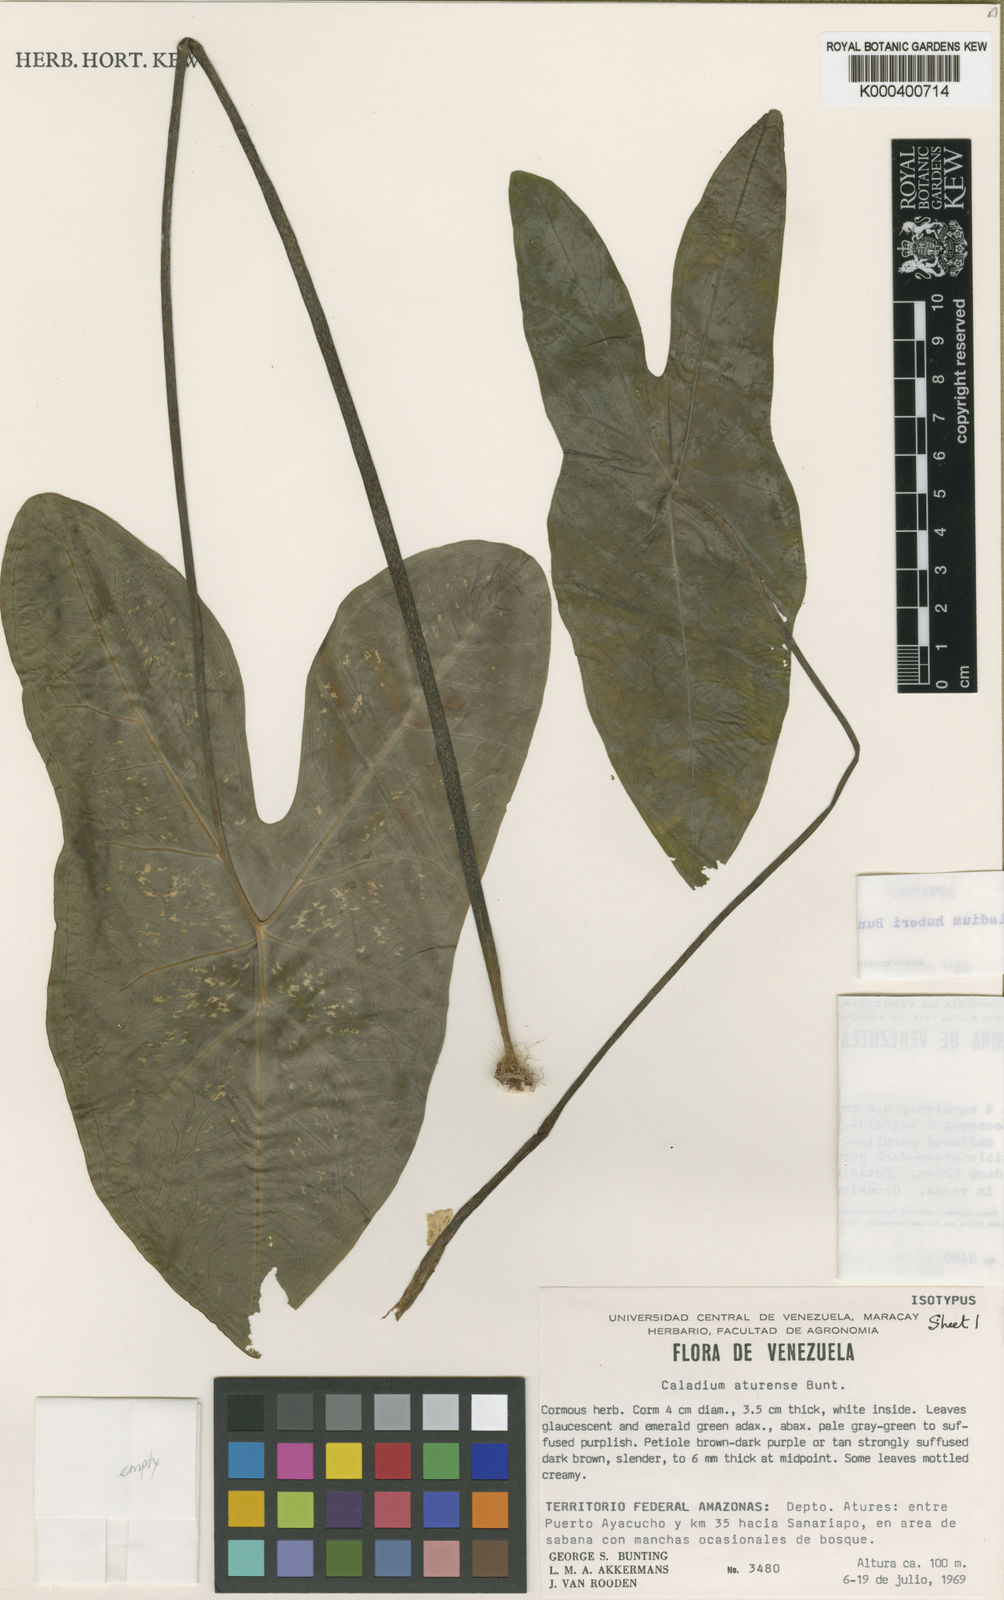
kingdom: Plantae
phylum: Tracheophyta
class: Liliopsida
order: Alismatales
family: Araceae
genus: Caladium
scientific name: Caladium
